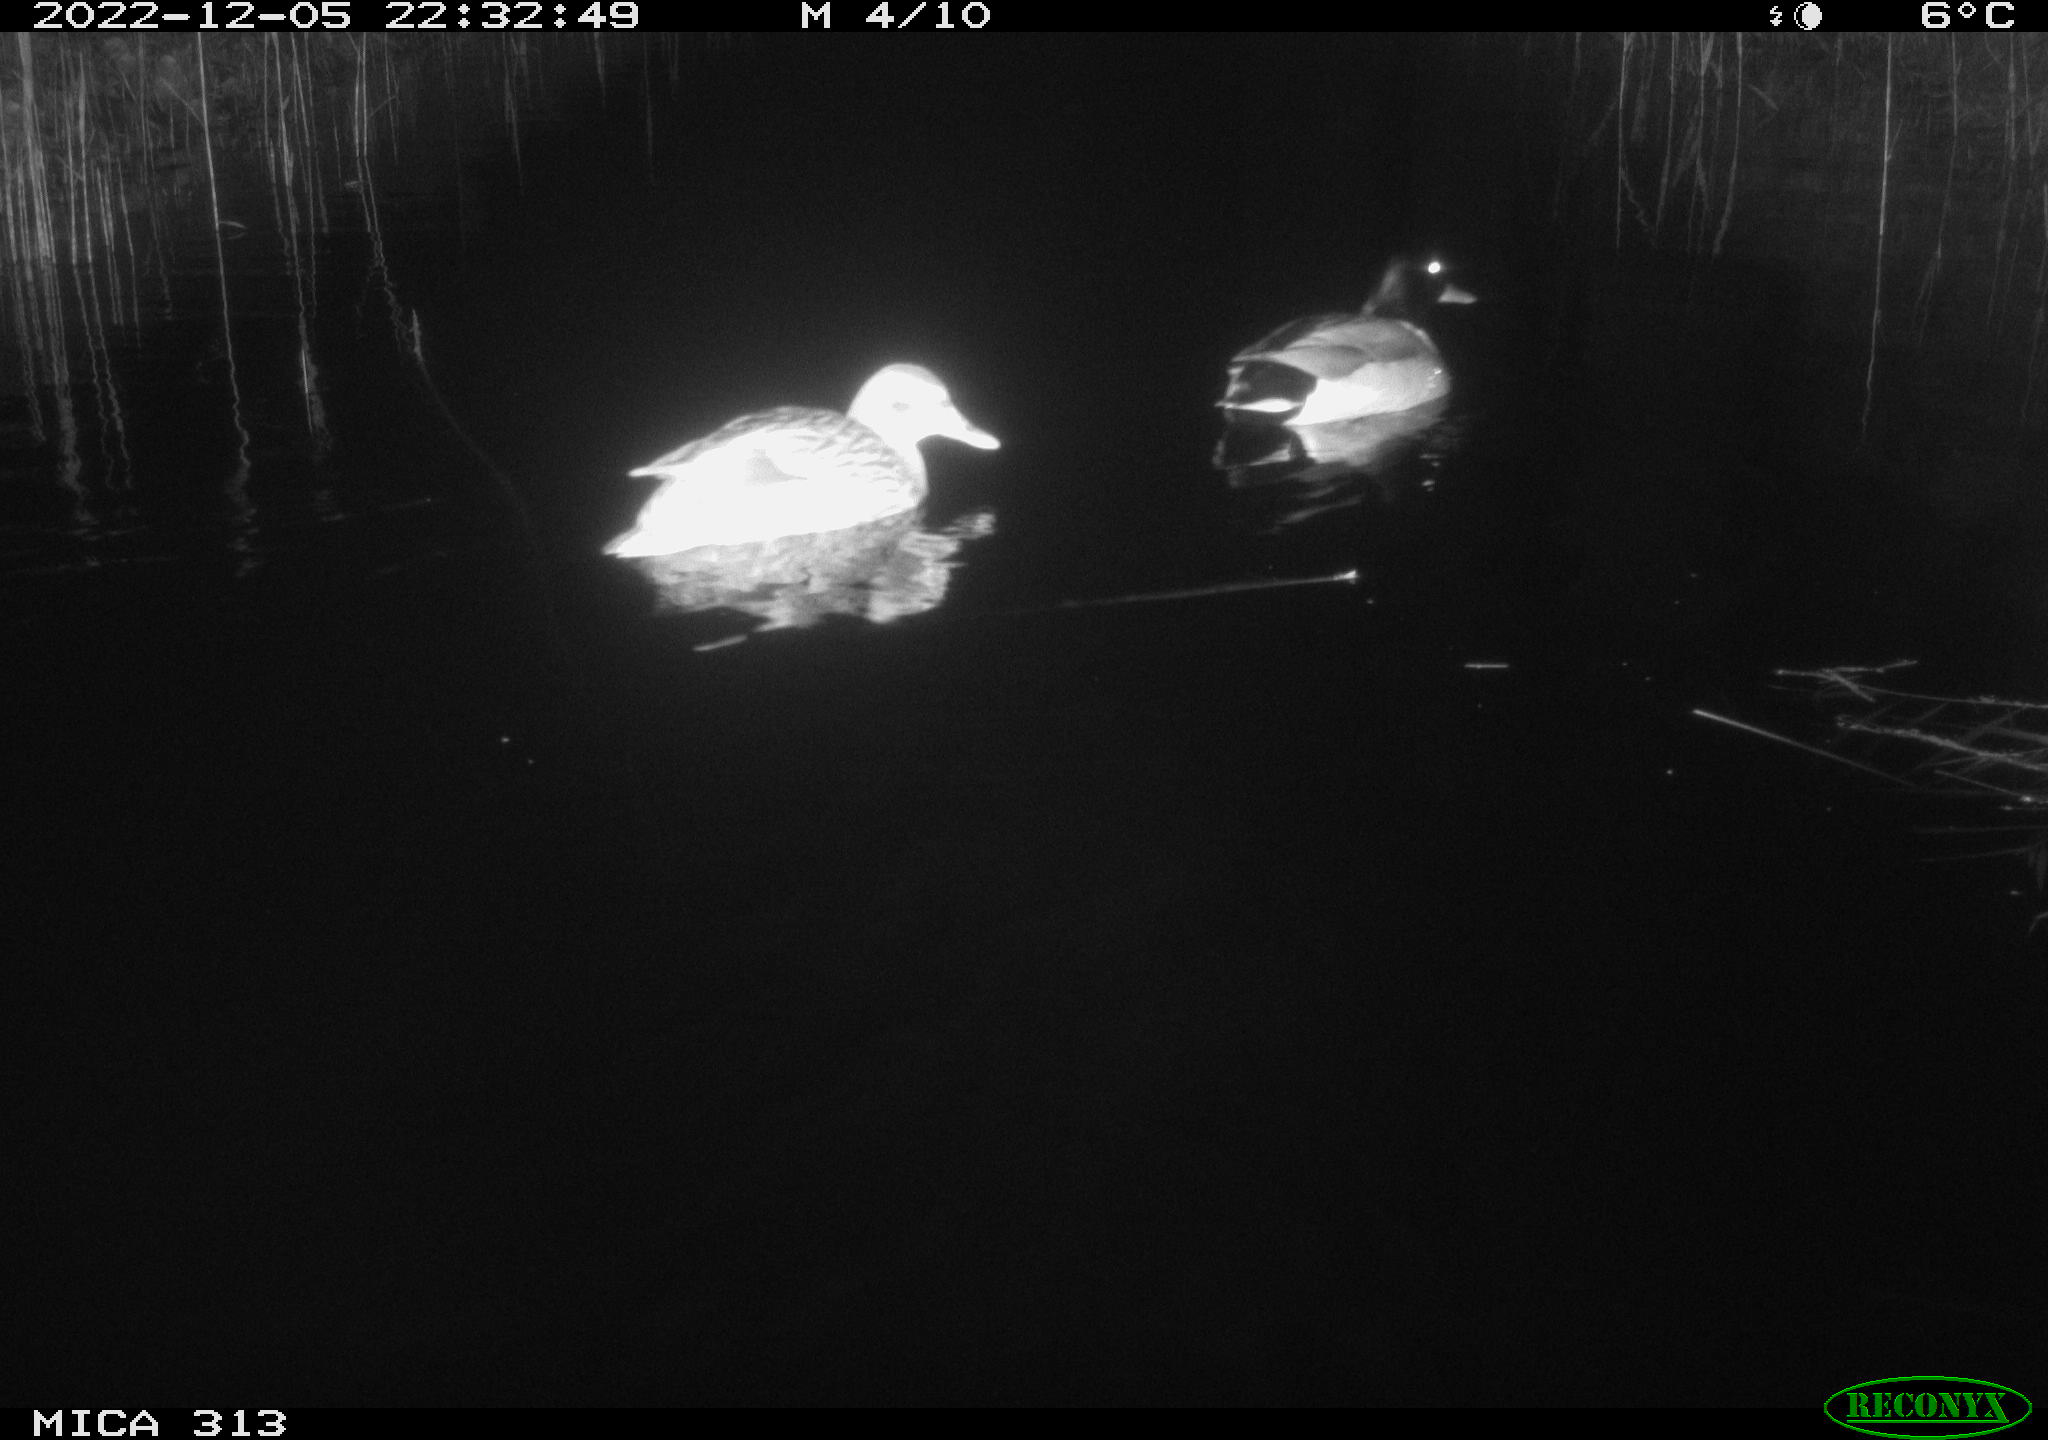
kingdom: Animalia
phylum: Chordata
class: Aves
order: Anseriformes
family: Anatidae
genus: Anas
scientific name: Anas
